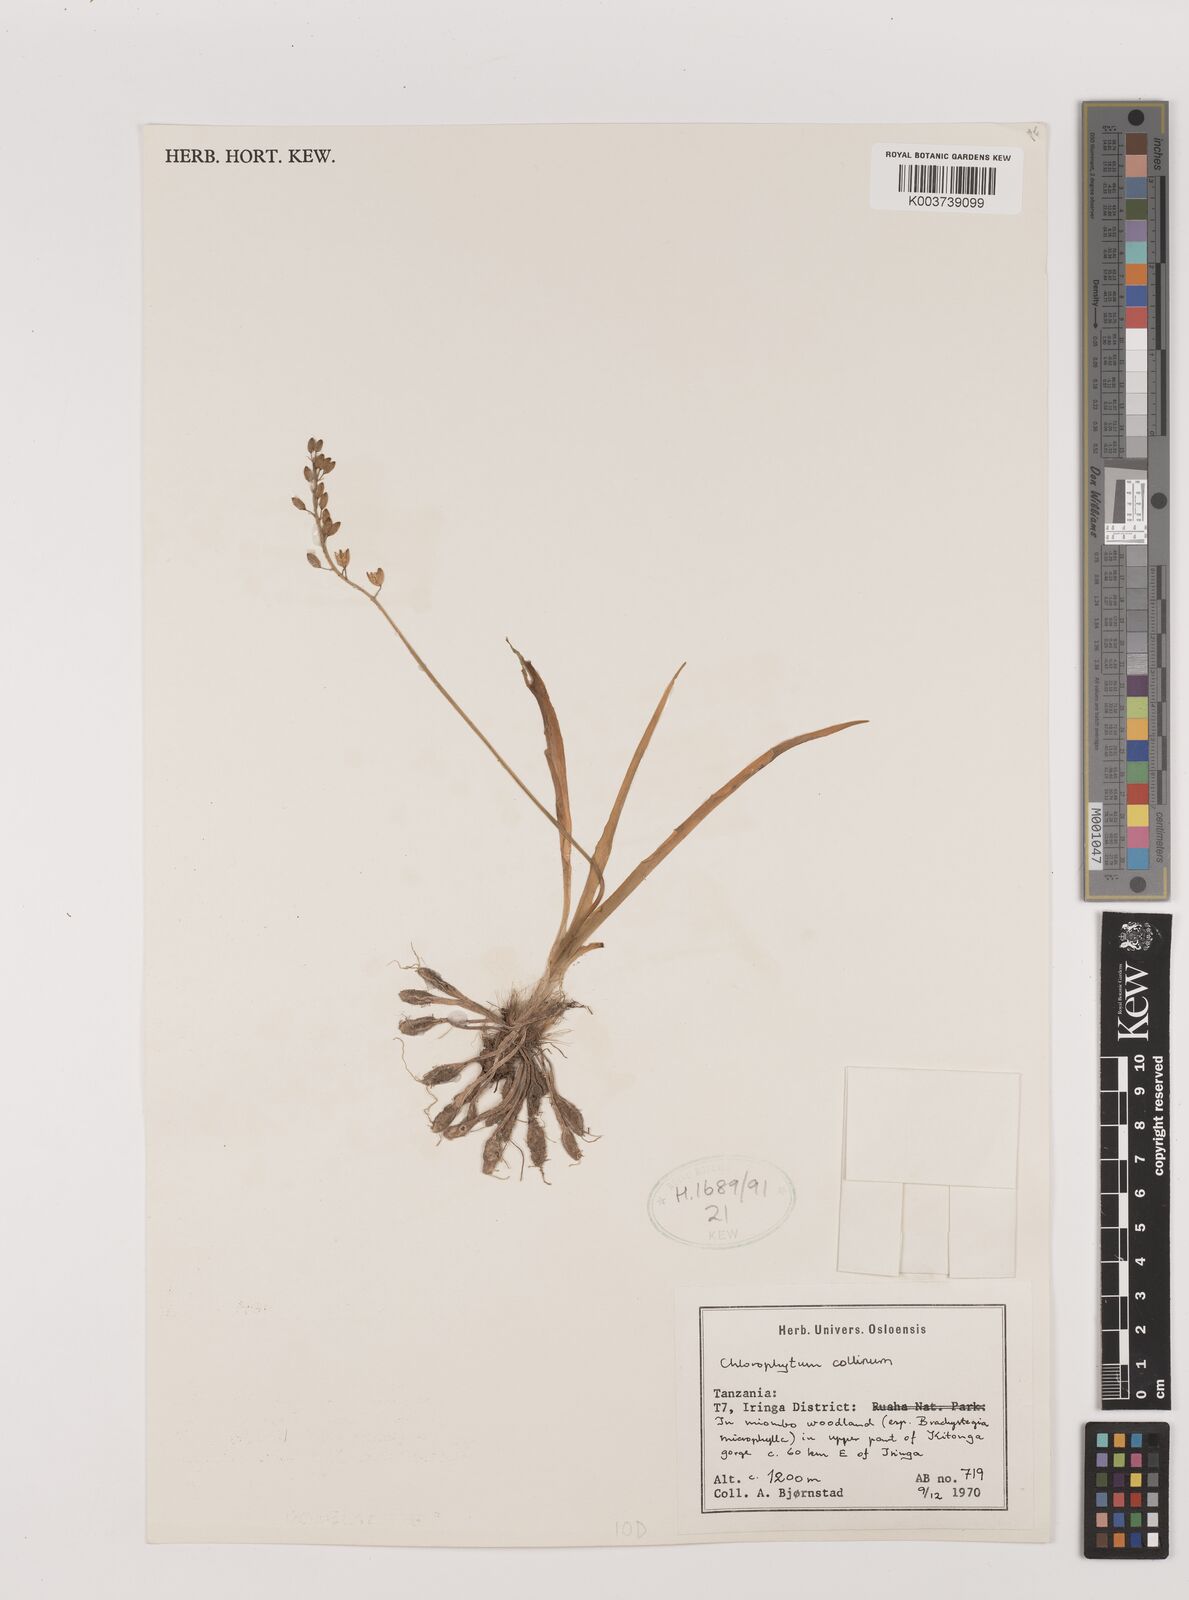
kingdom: Plantae
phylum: Tracheophyta
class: Liliopsida
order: Asparagales
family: Asparagaceae
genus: Chlorophytum
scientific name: Chlorophytum
